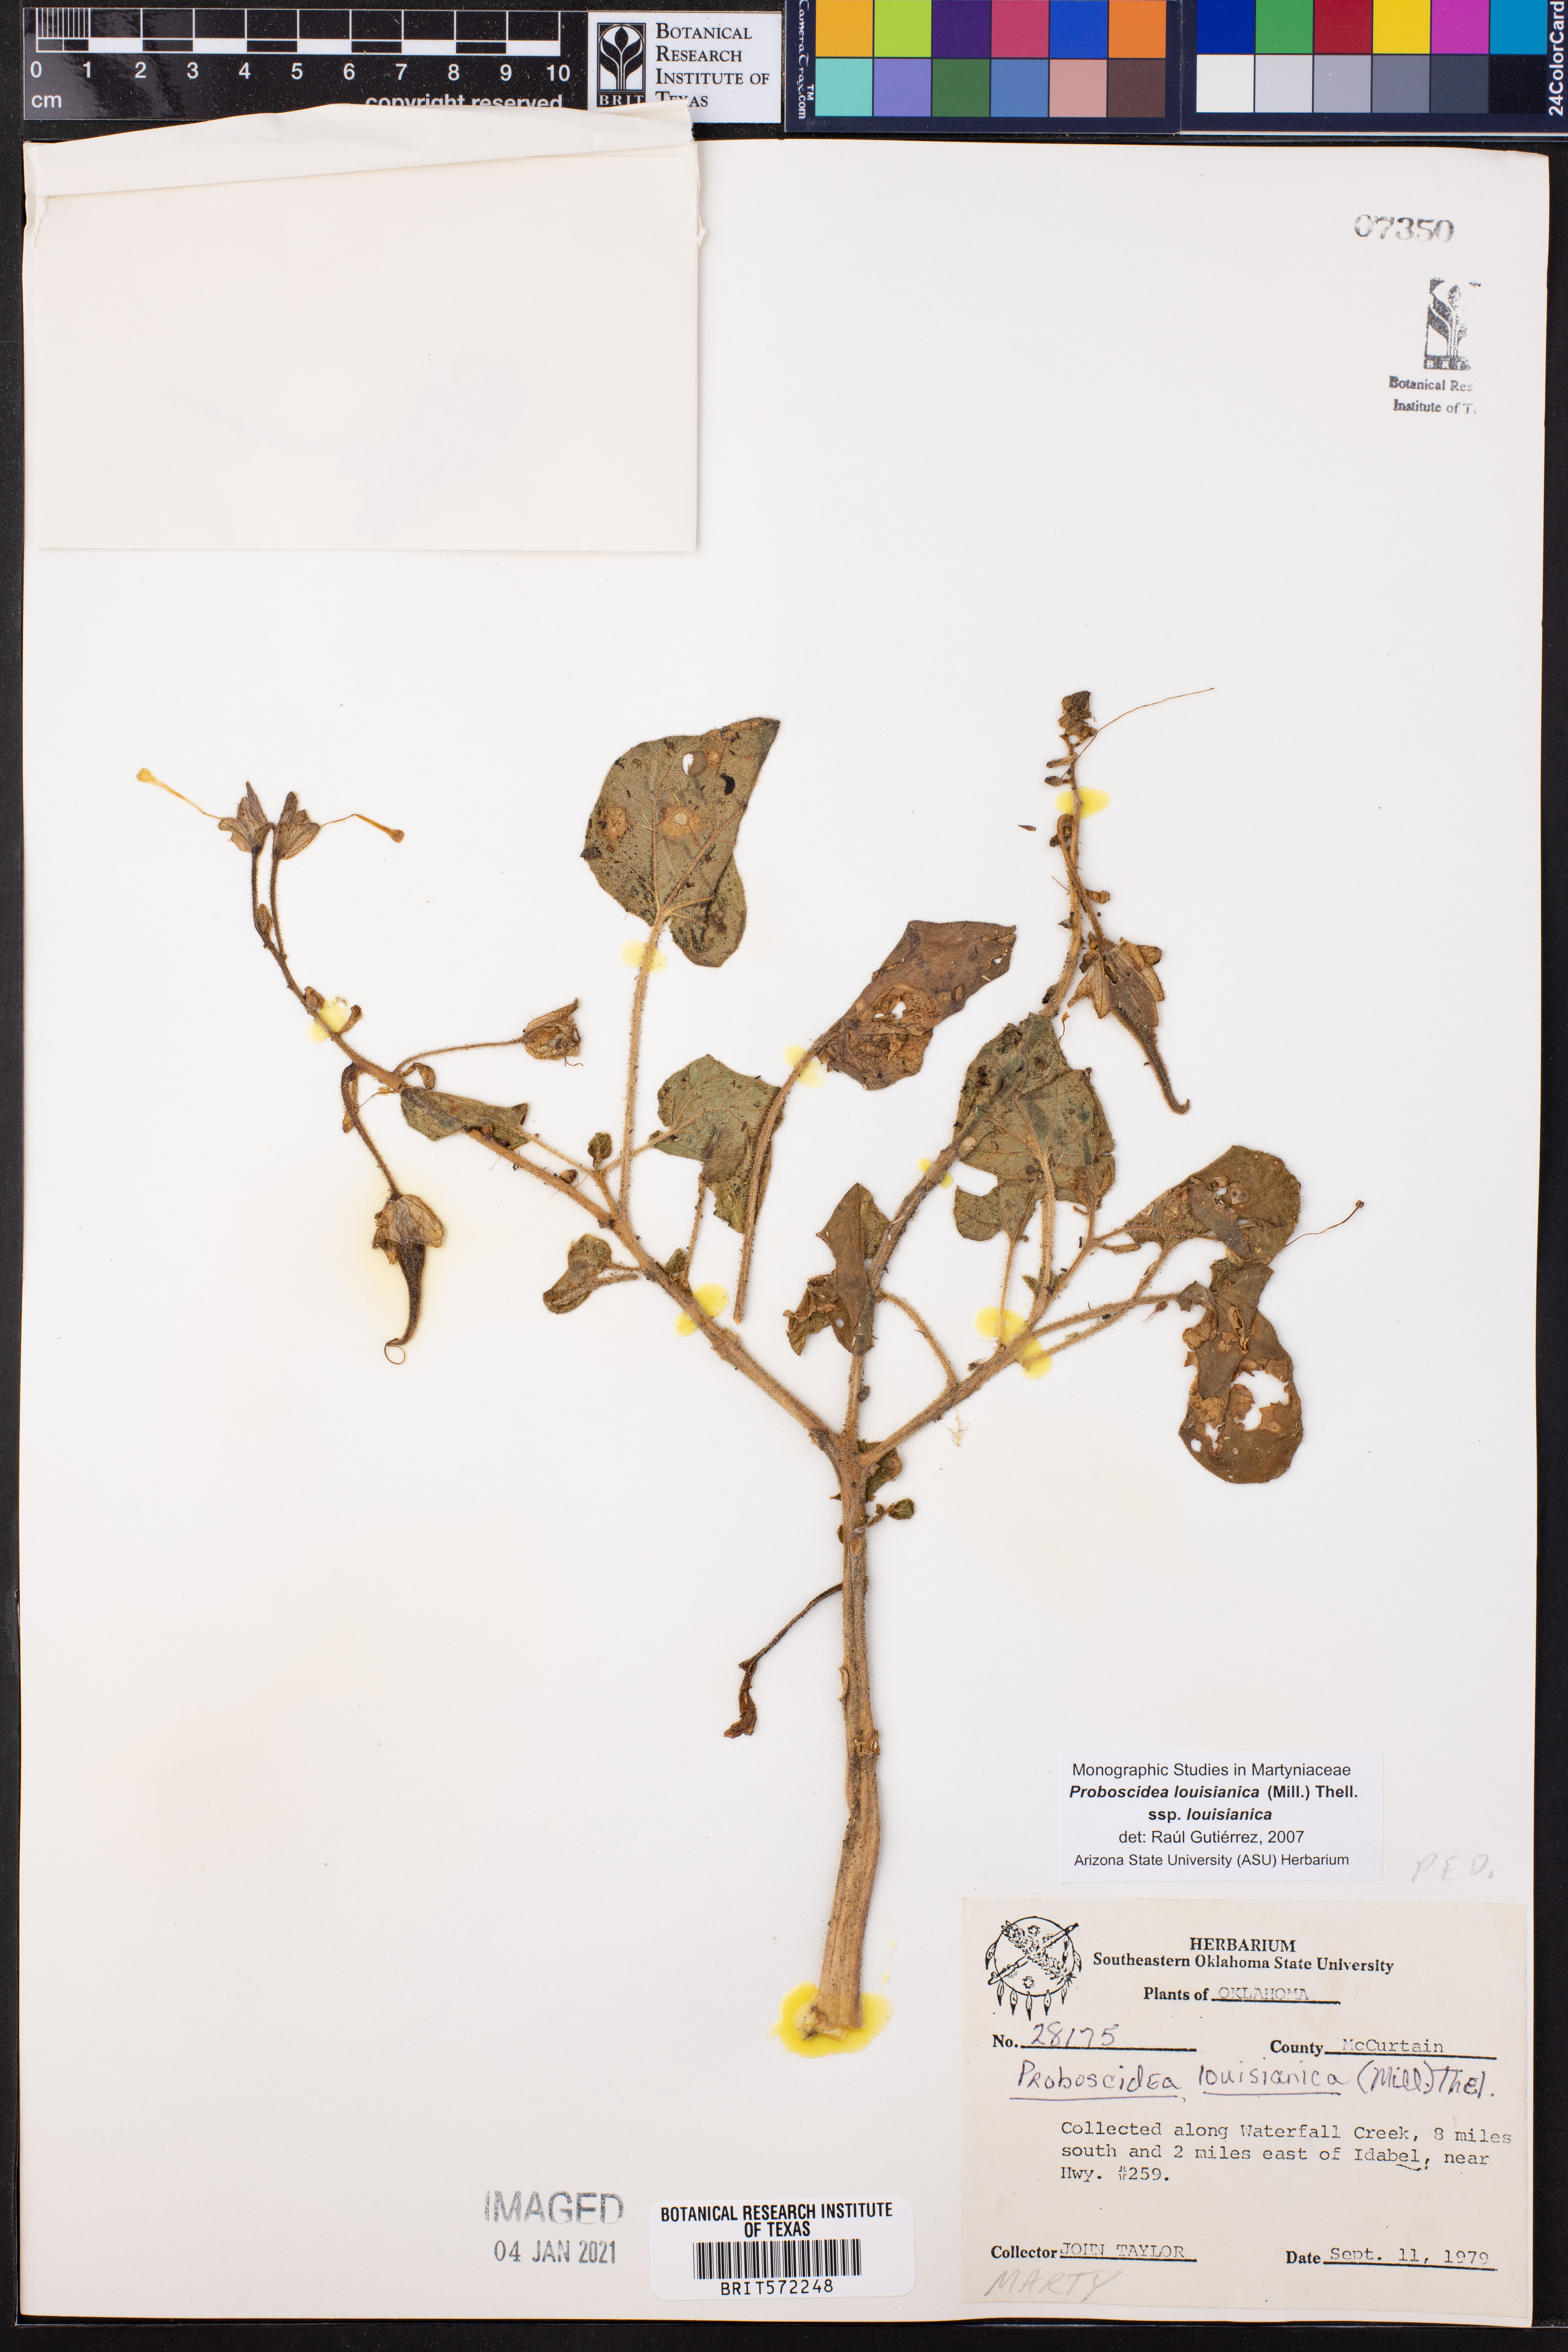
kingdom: Plantae
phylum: Tracheophyta
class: Magnoliopsida
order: Lamiales
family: Martyniaceae
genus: Proboscidea
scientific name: Proboscidea louisianica
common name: Elephant tusks
